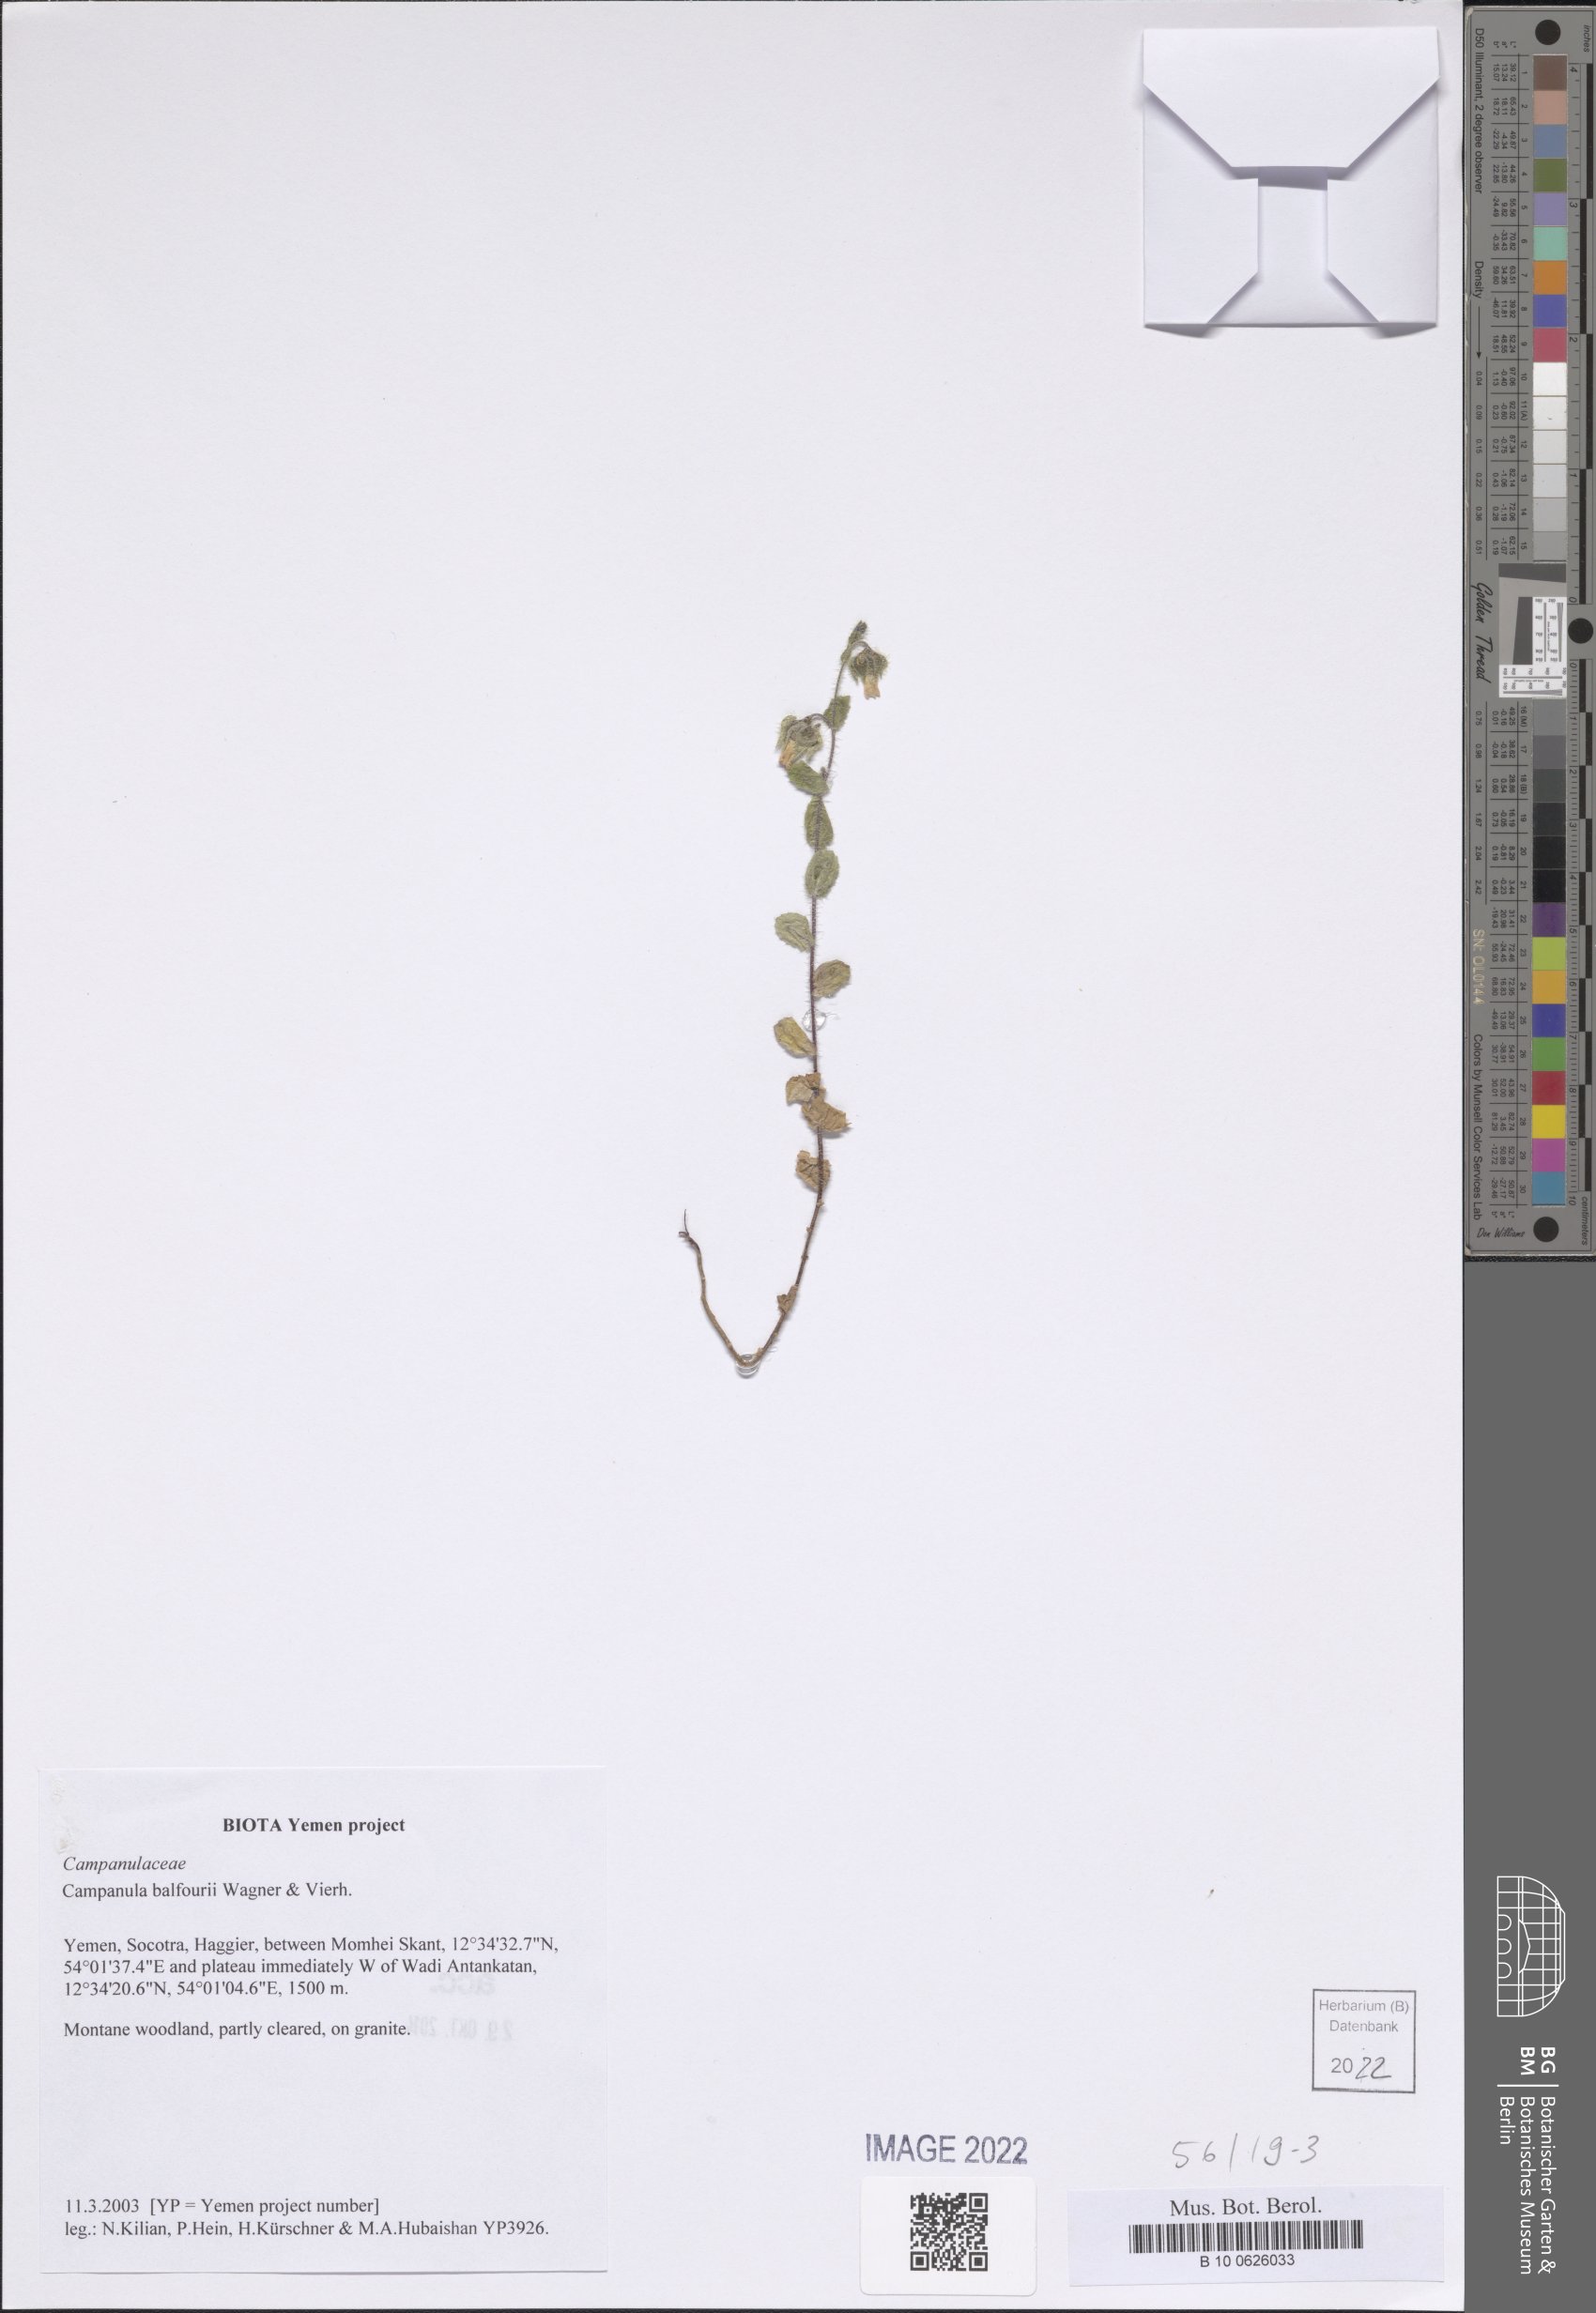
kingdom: Plantae
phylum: Tracheophyta
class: Magnoliopsida
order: Asterales
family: Campanulaceae
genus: Campanula
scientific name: Campanula balfourii
